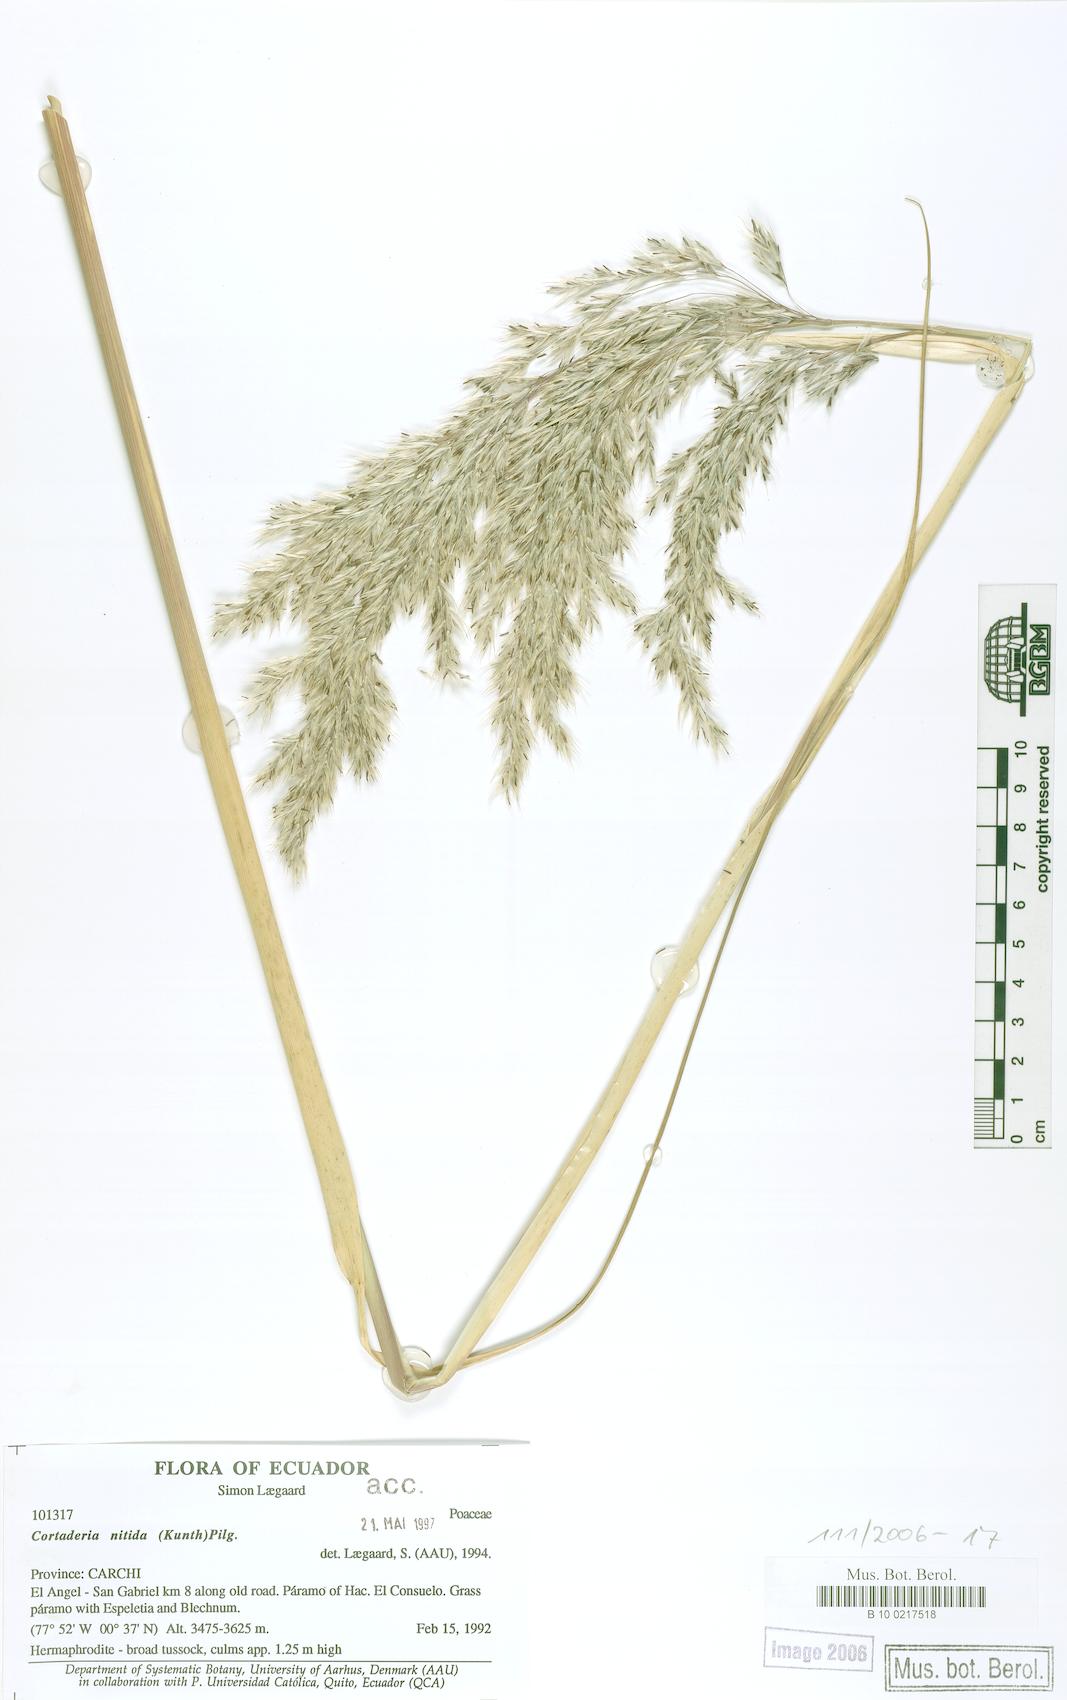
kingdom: Plantae
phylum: Tracheophyta
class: Liliopsida
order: Poales
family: Poaceae
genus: Cortaderia
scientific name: Cortaderia nitida
